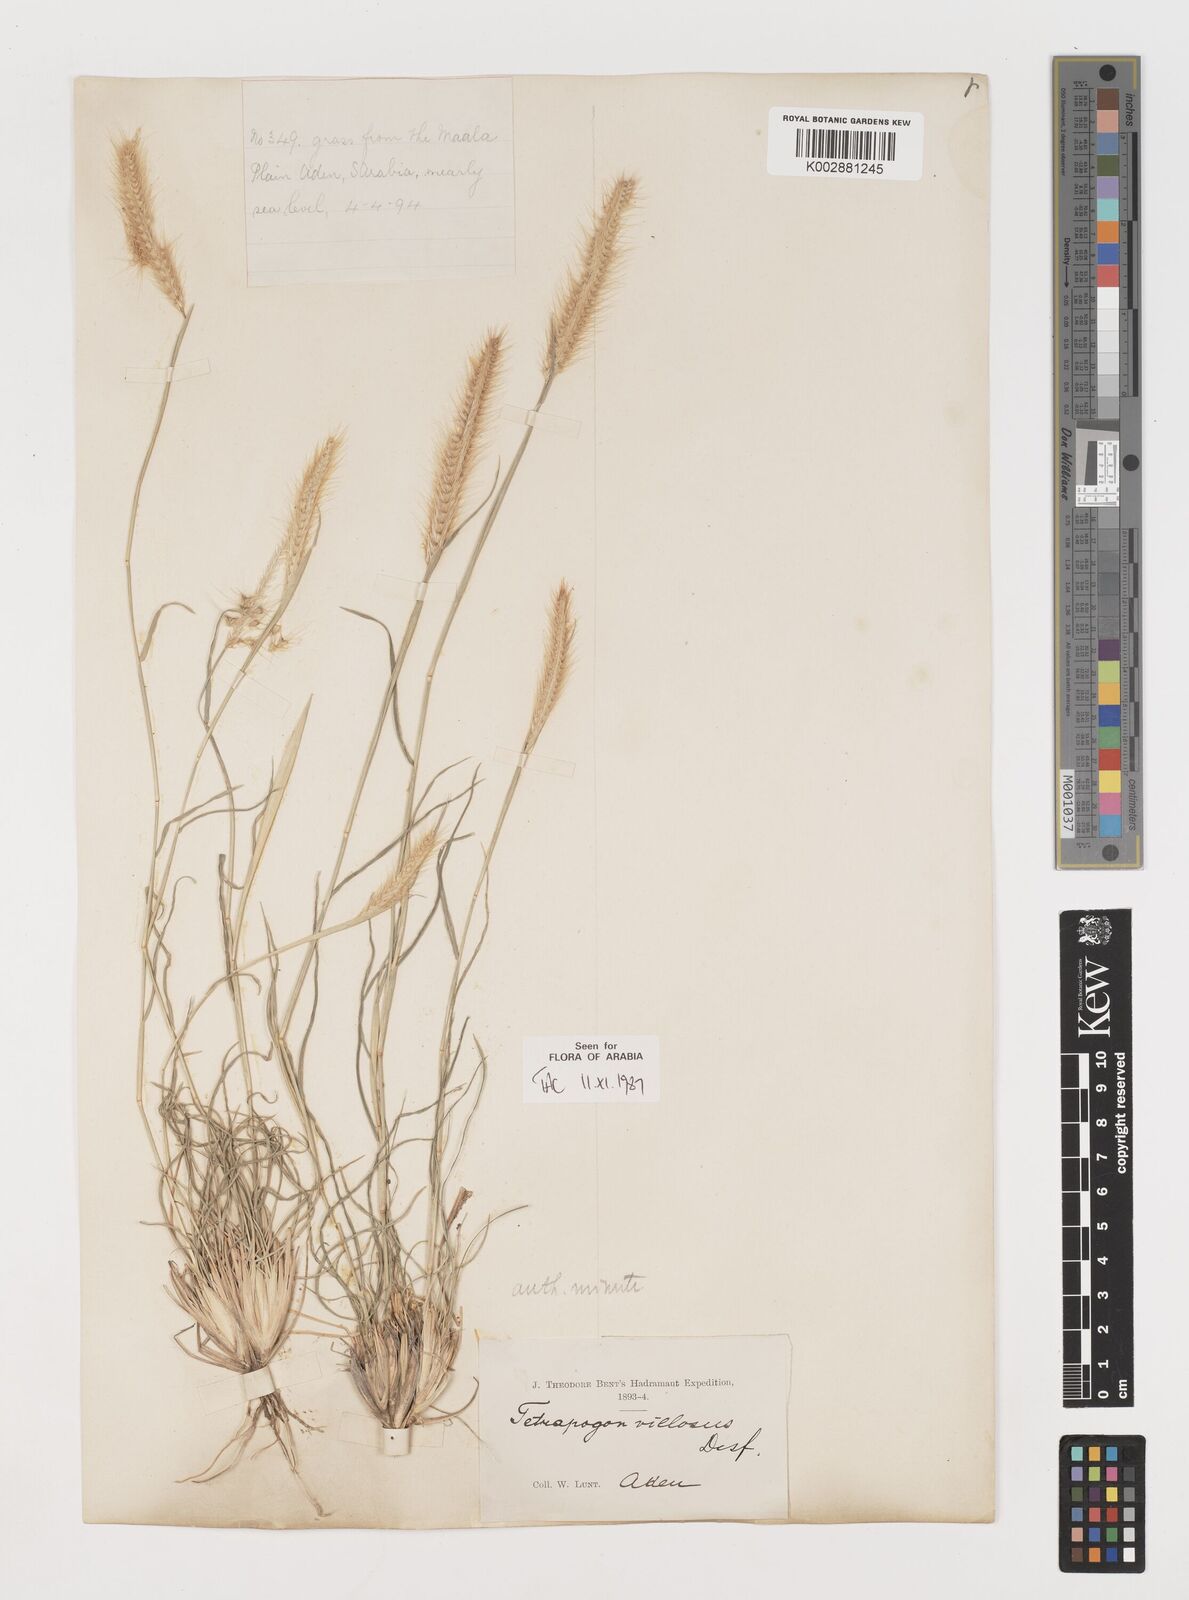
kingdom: Plantae
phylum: Tracheophyta
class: Liliopsida
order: Poales
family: Poaceae
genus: Tetrapogon
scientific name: Tetrapogon villosus
